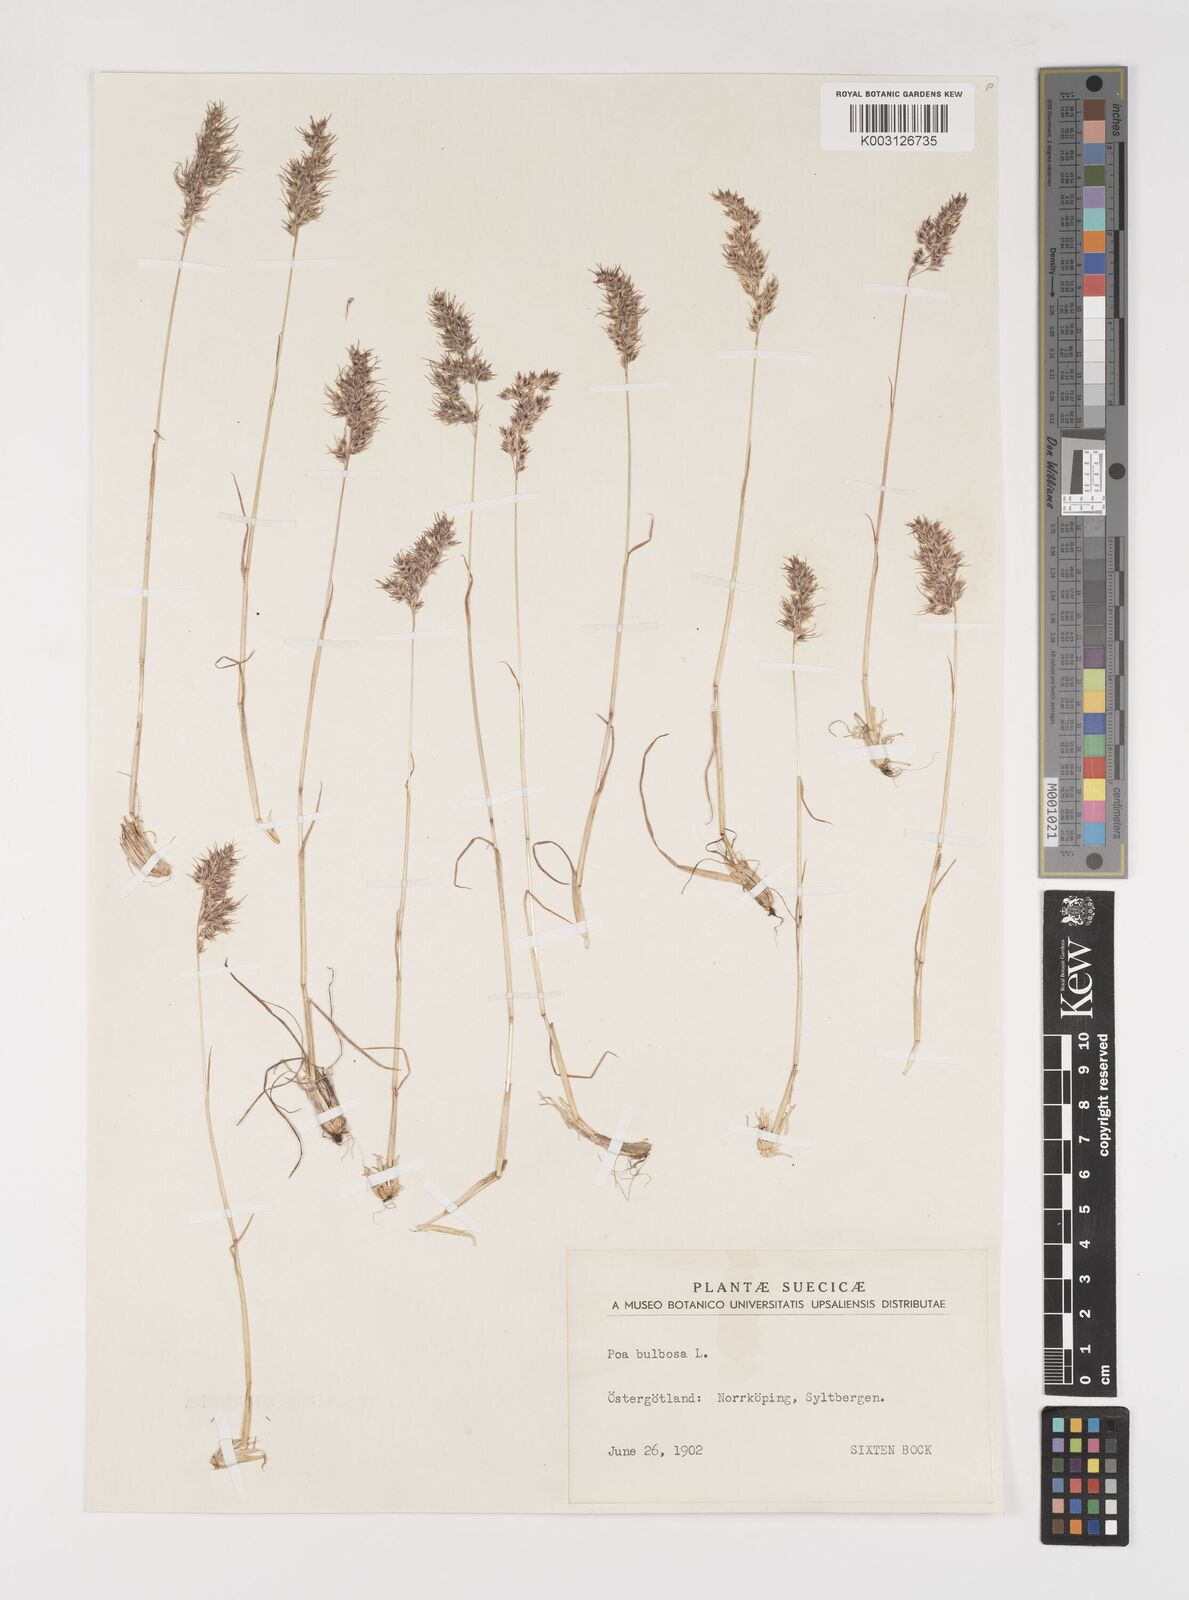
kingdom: Plantae
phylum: Tracheophyta
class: Liliopsida
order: Poales
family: Poaceae
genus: Poa
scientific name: Poa bulbosa
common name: Bulbous bluegrass
